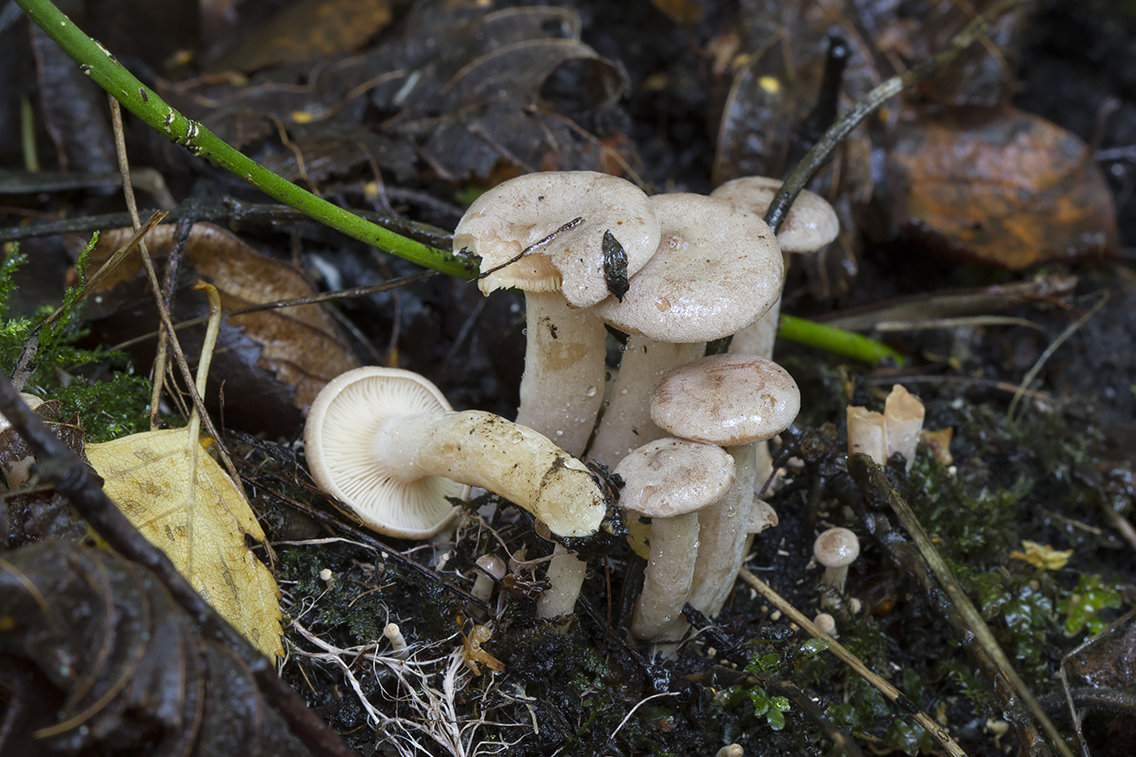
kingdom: Fungi
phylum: Basidiomycota
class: Agaricomycetes
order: Russulales
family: Russulaceae
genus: Lactarius
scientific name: Lactarius glyciosmus
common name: kokos-mælkehat
